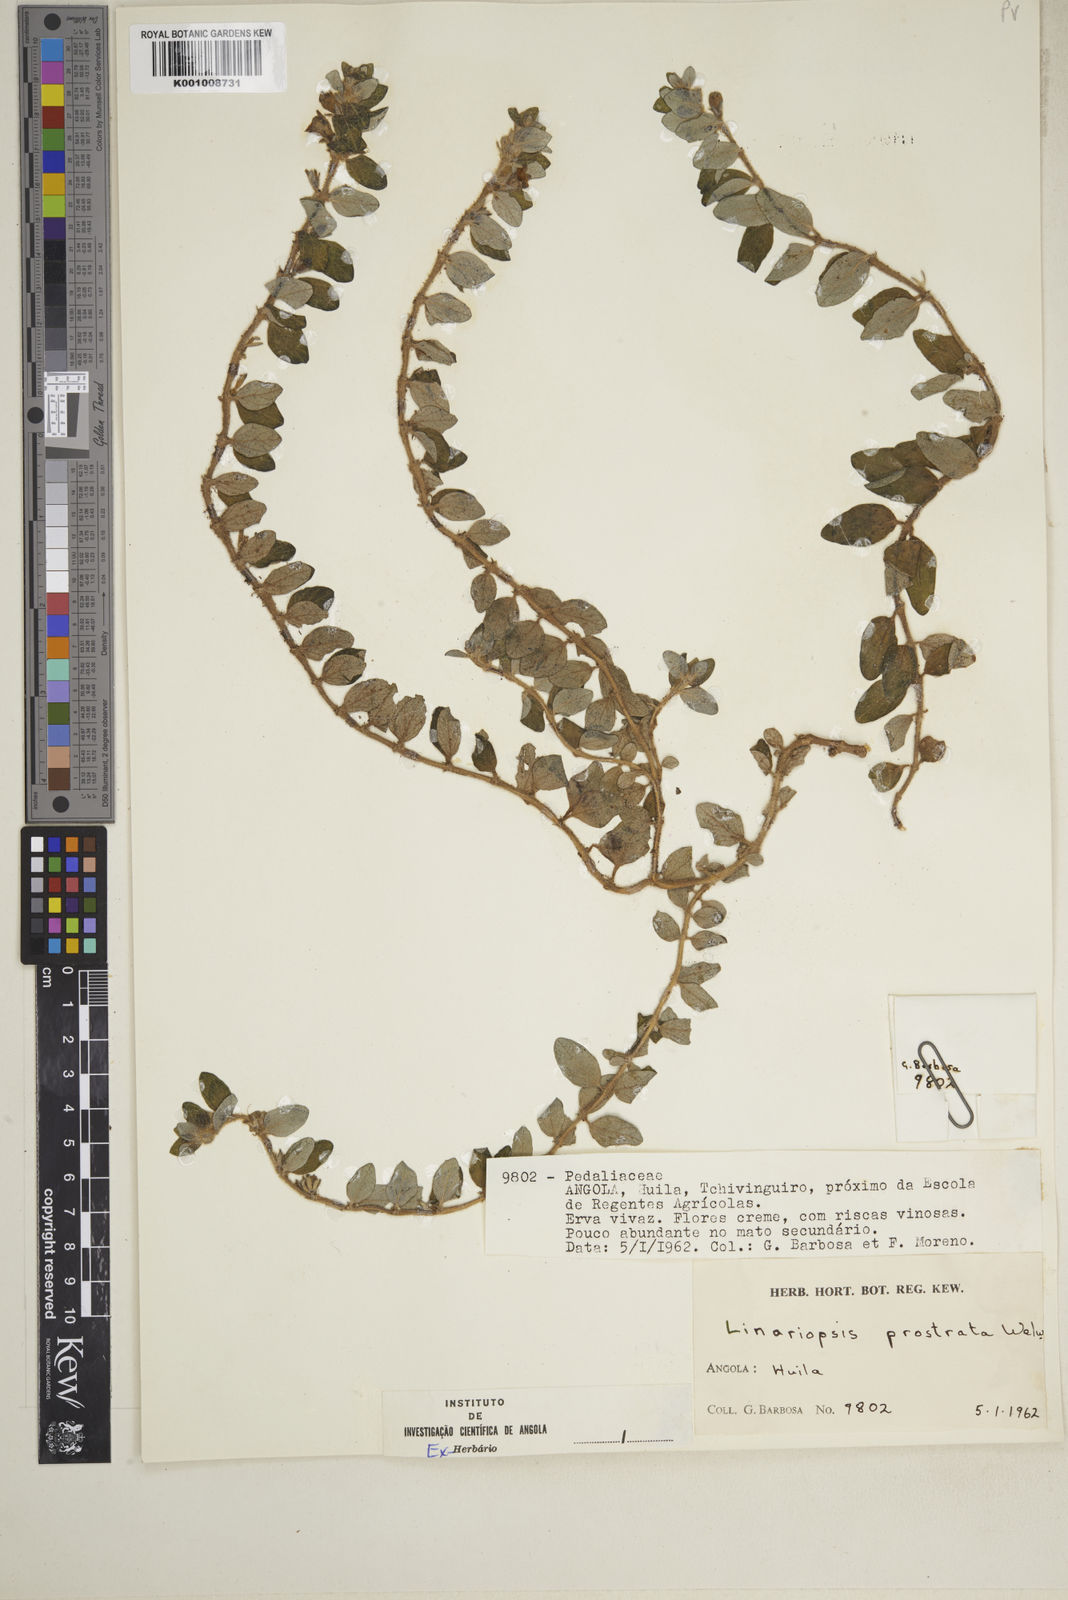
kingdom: Plantae
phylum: Tracheophyta
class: Magnoliopsida
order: Lamiales
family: Pedaliaceae
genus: Linariopsis
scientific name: Linariopsis prostrata
